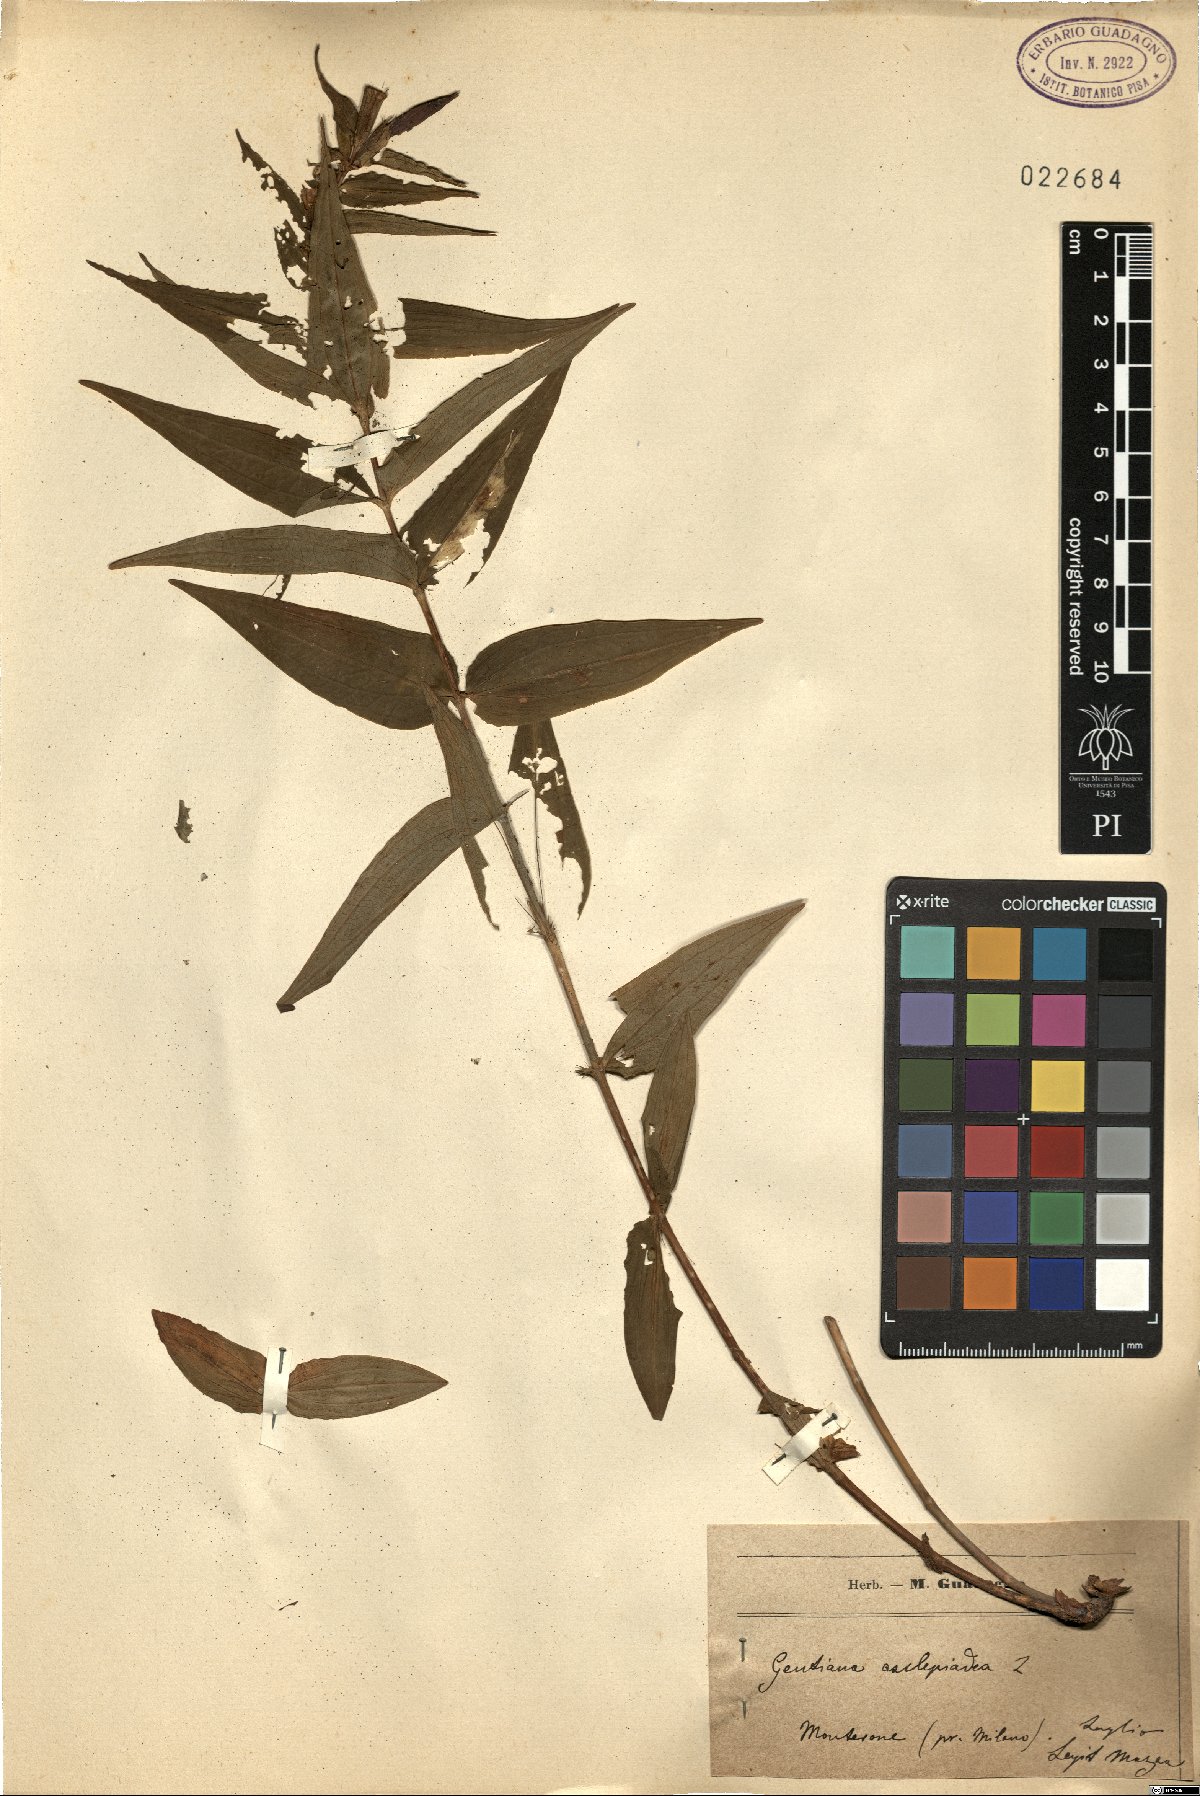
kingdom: Plantae
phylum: Tracheophyta
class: Magnoliopsida
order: Gentianales
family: Gentianaceae
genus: Gentiana
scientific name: Gentiana asclepiadea
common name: Willow gentian
